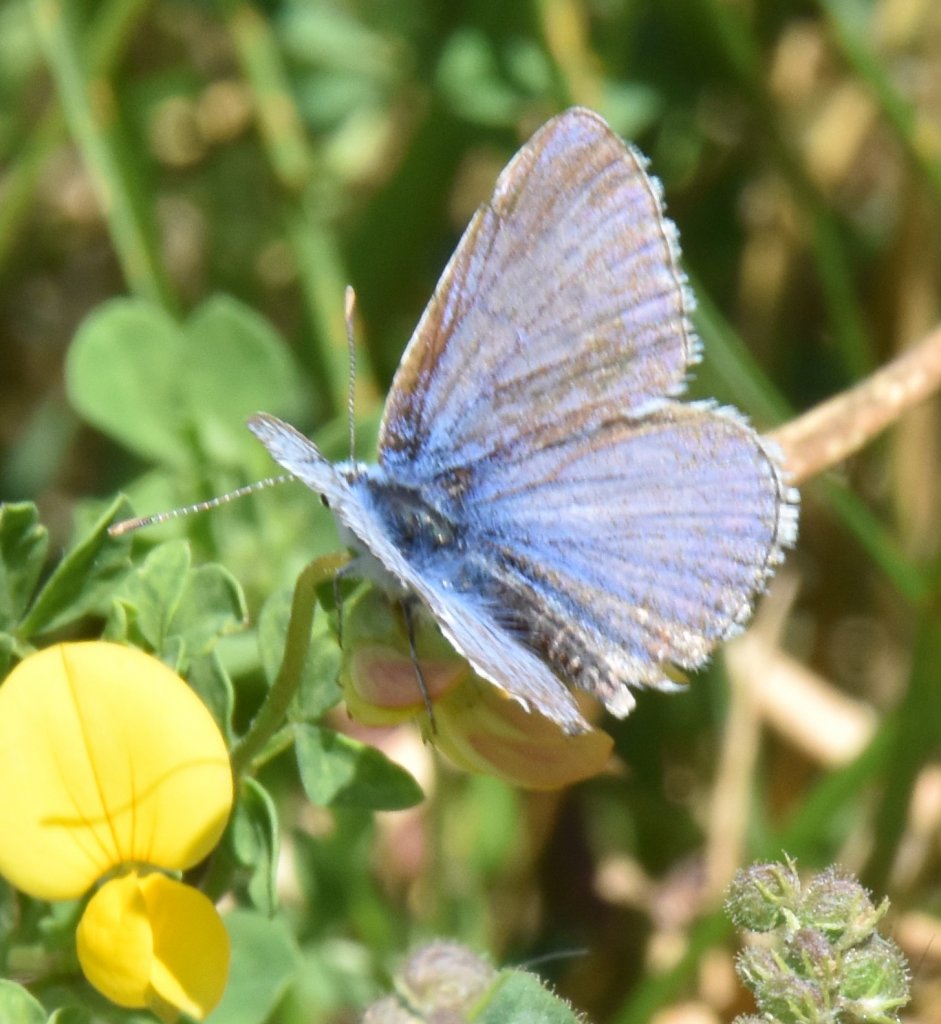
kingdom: Animalia
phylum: Arthropoda
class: Insecta
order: Lepidoptera
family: Lycaenidae
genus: Polyommatus
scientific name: Polyommatus icarus
